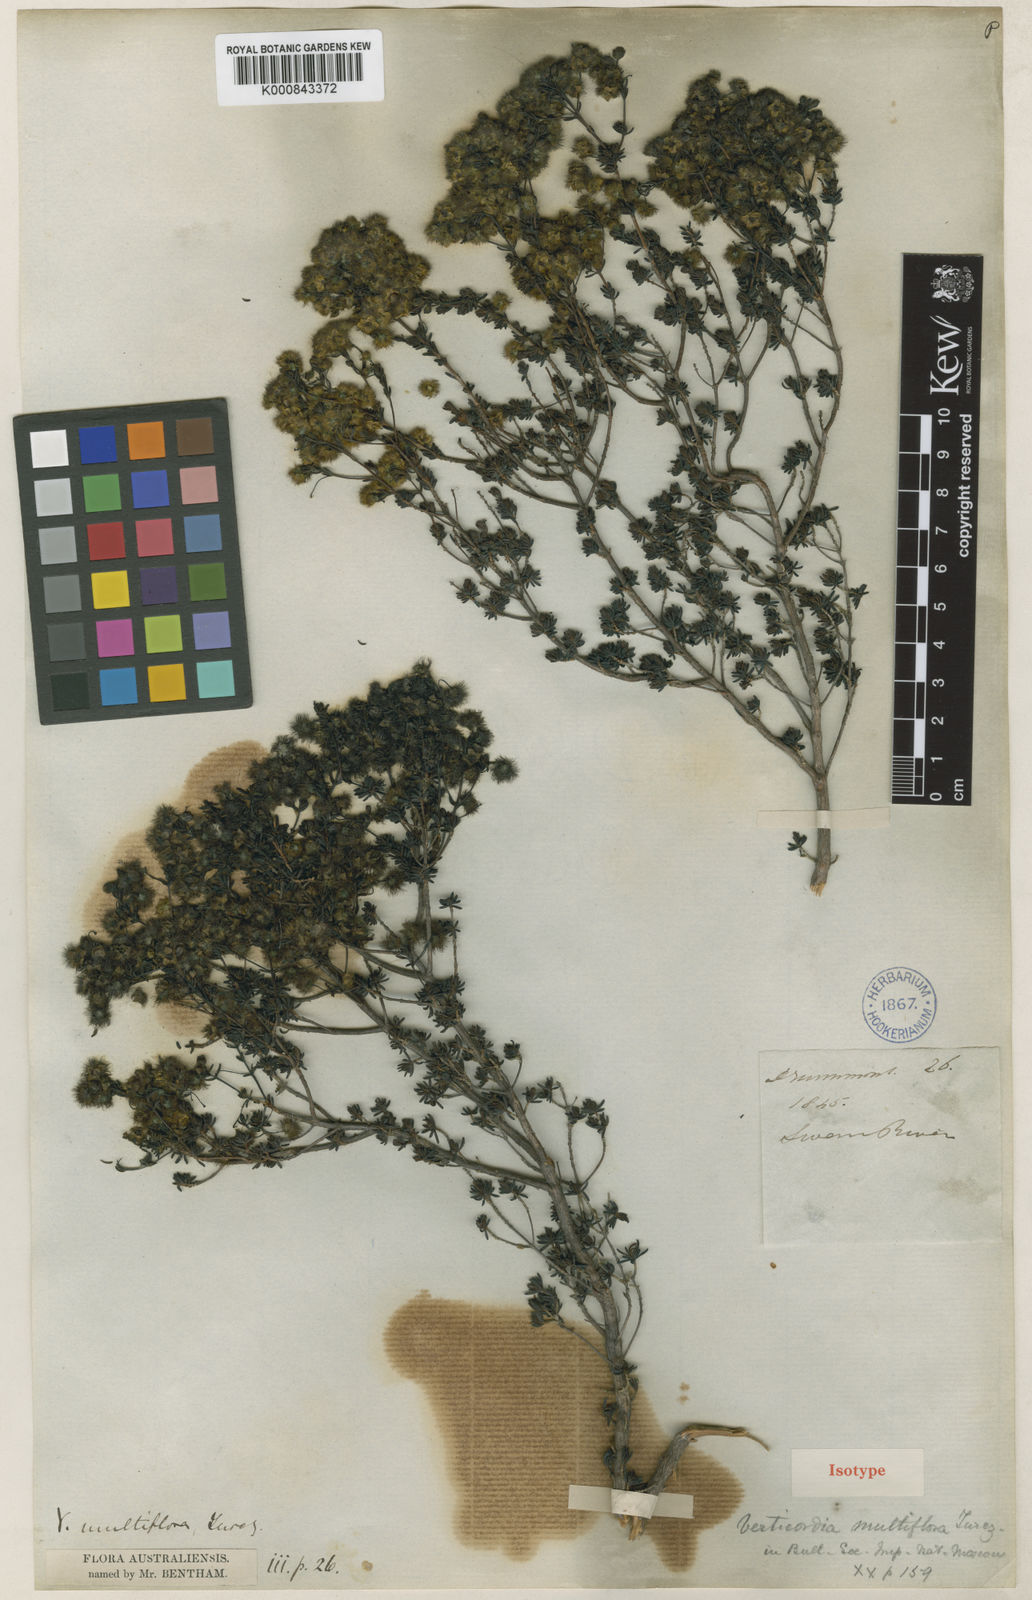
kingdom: Plantae
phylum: Tracheophyta
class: Magnoliopsida
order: Myrtales
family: Myrtaceae
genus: Verticordia
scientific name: Verticordia multiflora
